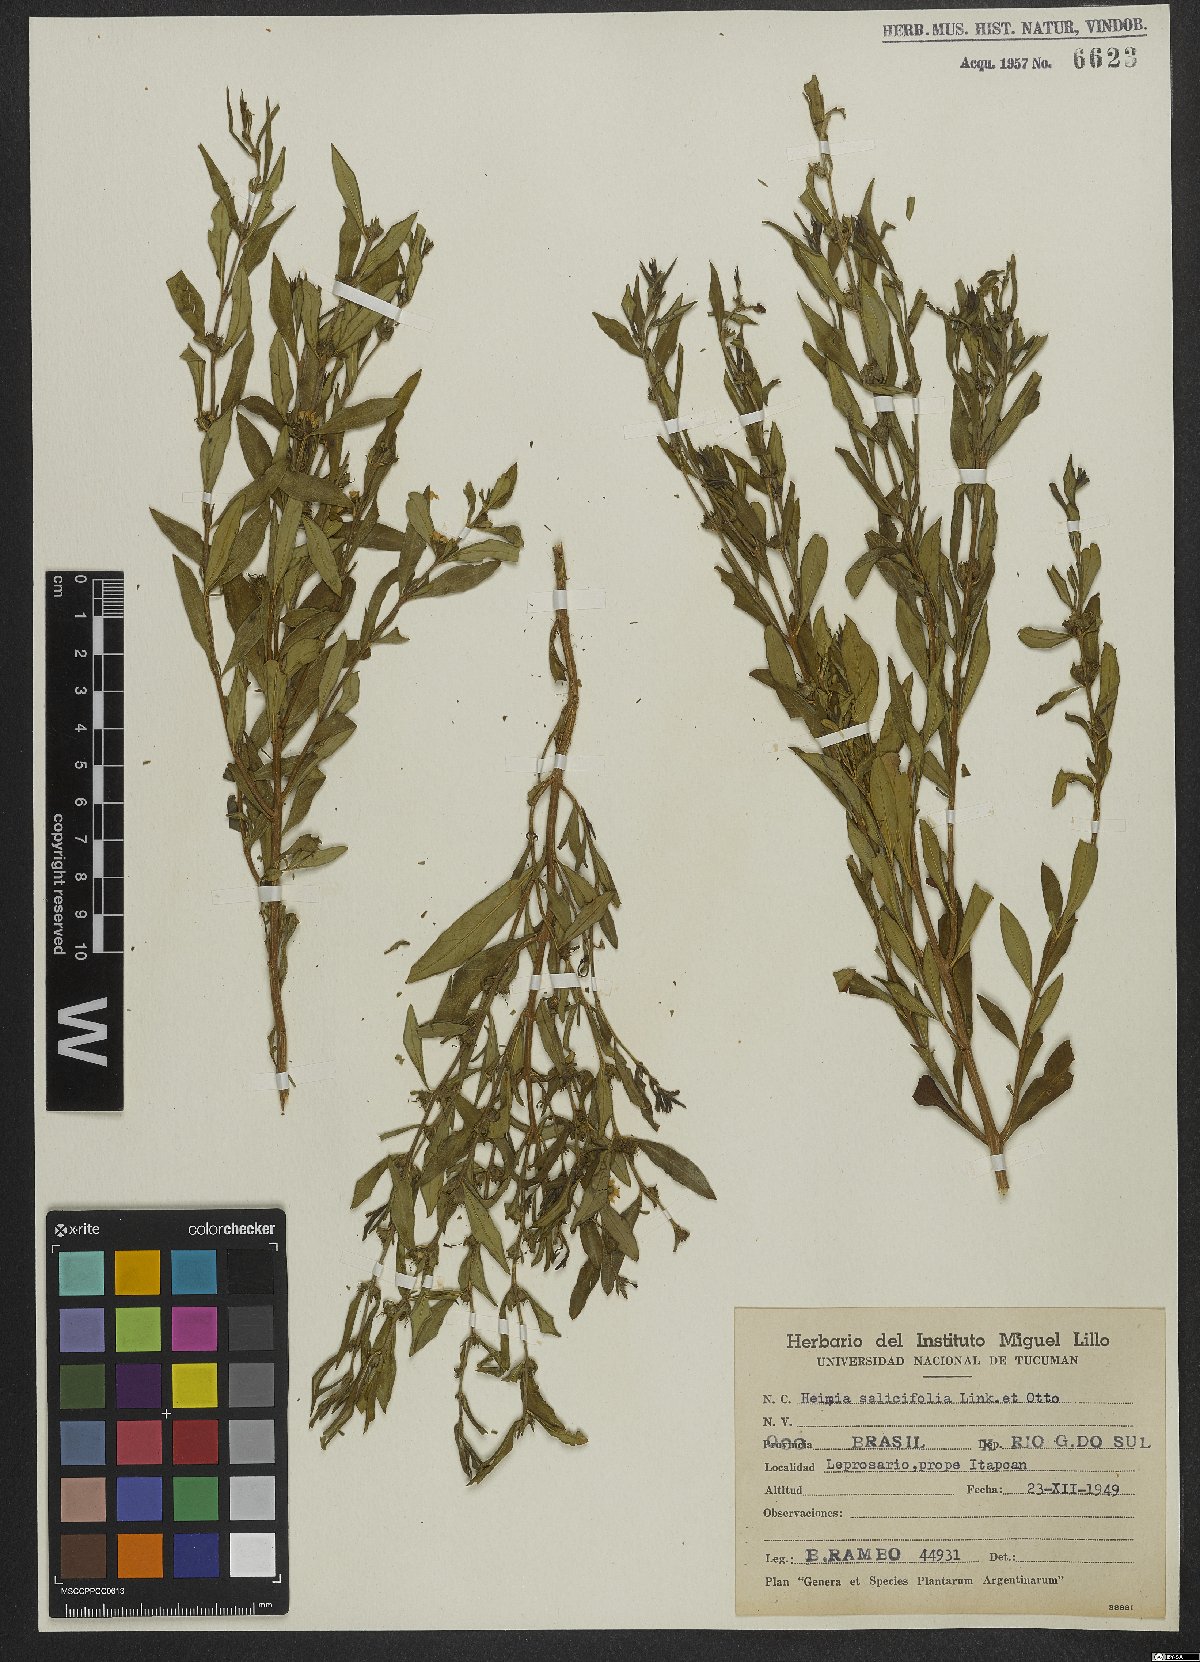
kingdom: Plantae
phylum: Tracheophyta
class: Magnoliopsida
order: Myrtales
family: Lythraceae
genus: Heimia
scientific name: Heimia salicifolia
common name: Willow-leaf heimia
